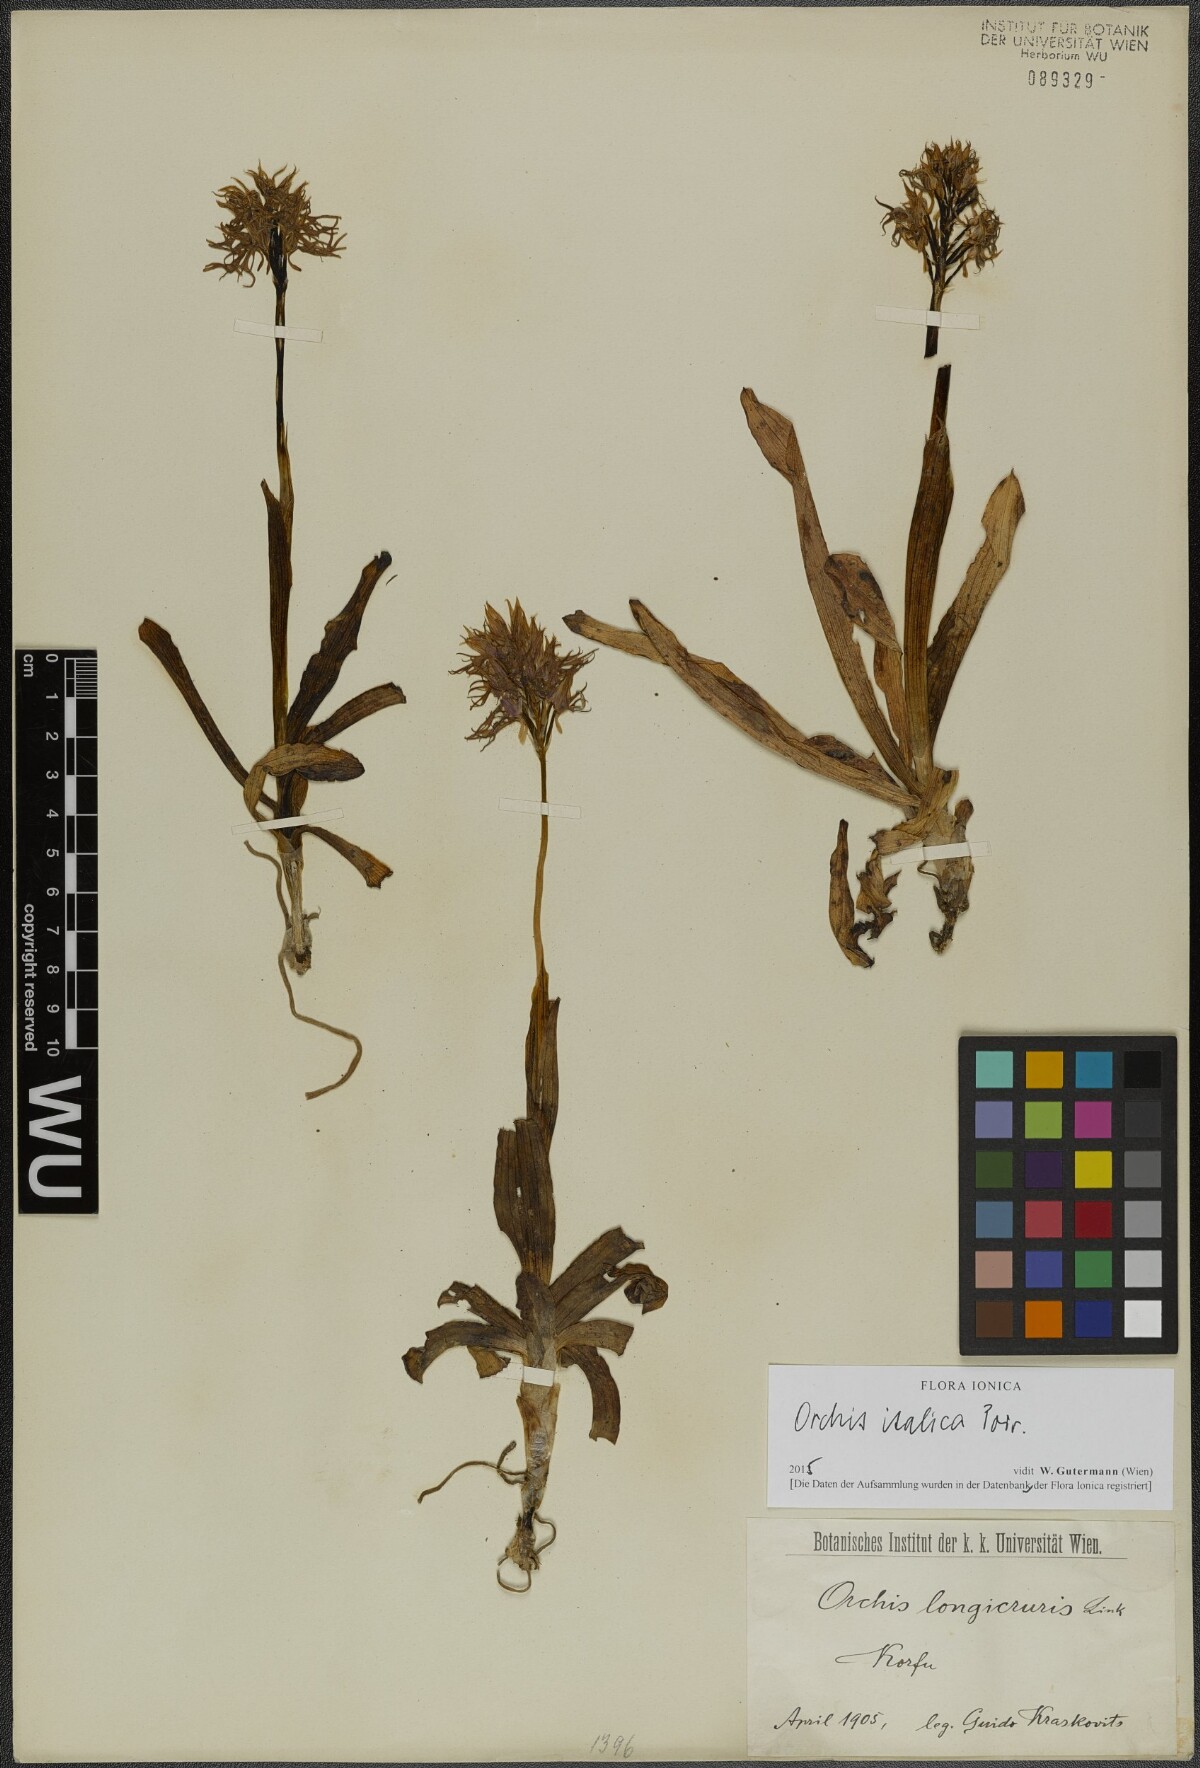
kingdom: Plantae
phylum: Tracheophyta
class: Liliopsida
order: Asparagales
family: Orchidaceae
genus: Orchis
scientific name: Orchis italica
